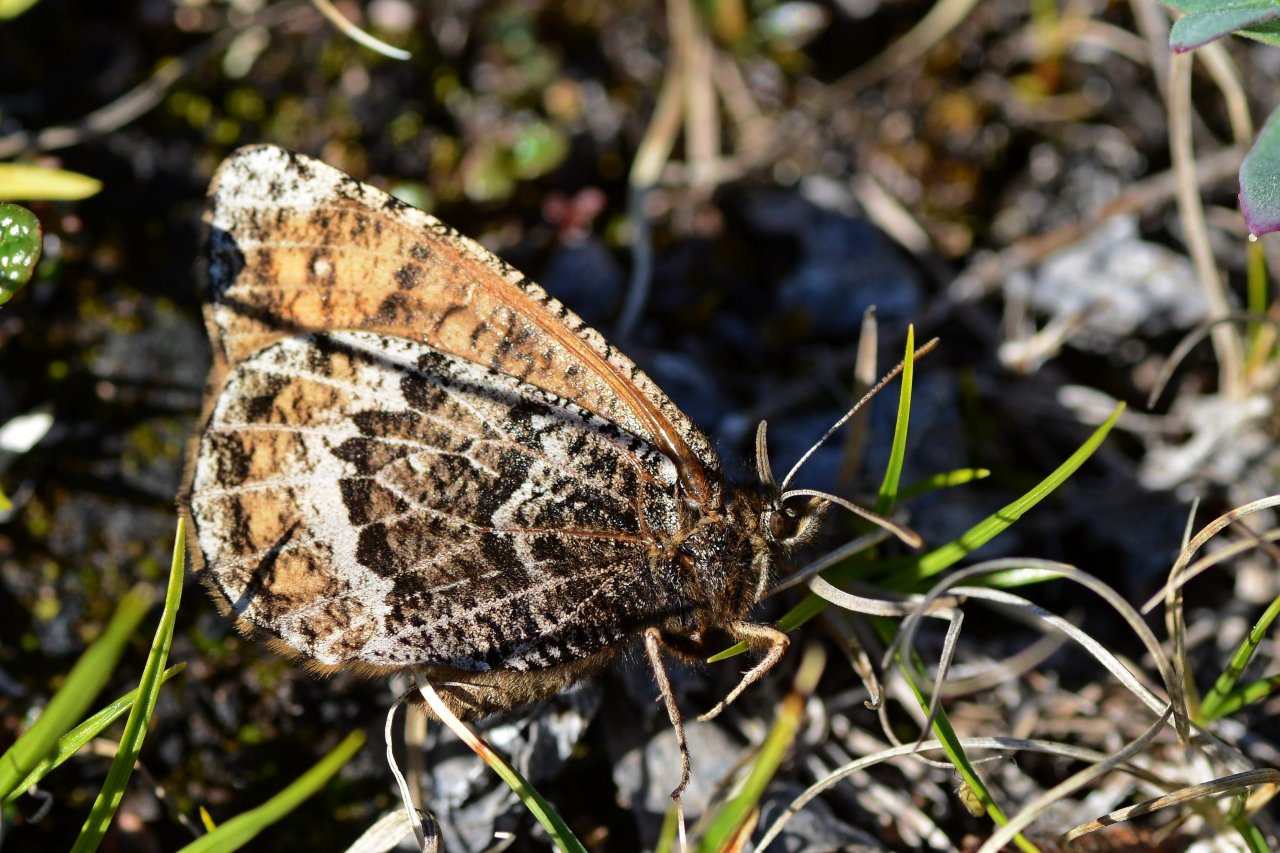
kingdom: Animalia
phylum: Arthropoda
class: Insecta
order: Lepidoptera
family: Nymphalidae
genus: Oeneis
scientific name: Oeneis bore
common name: White-veined Arctic
